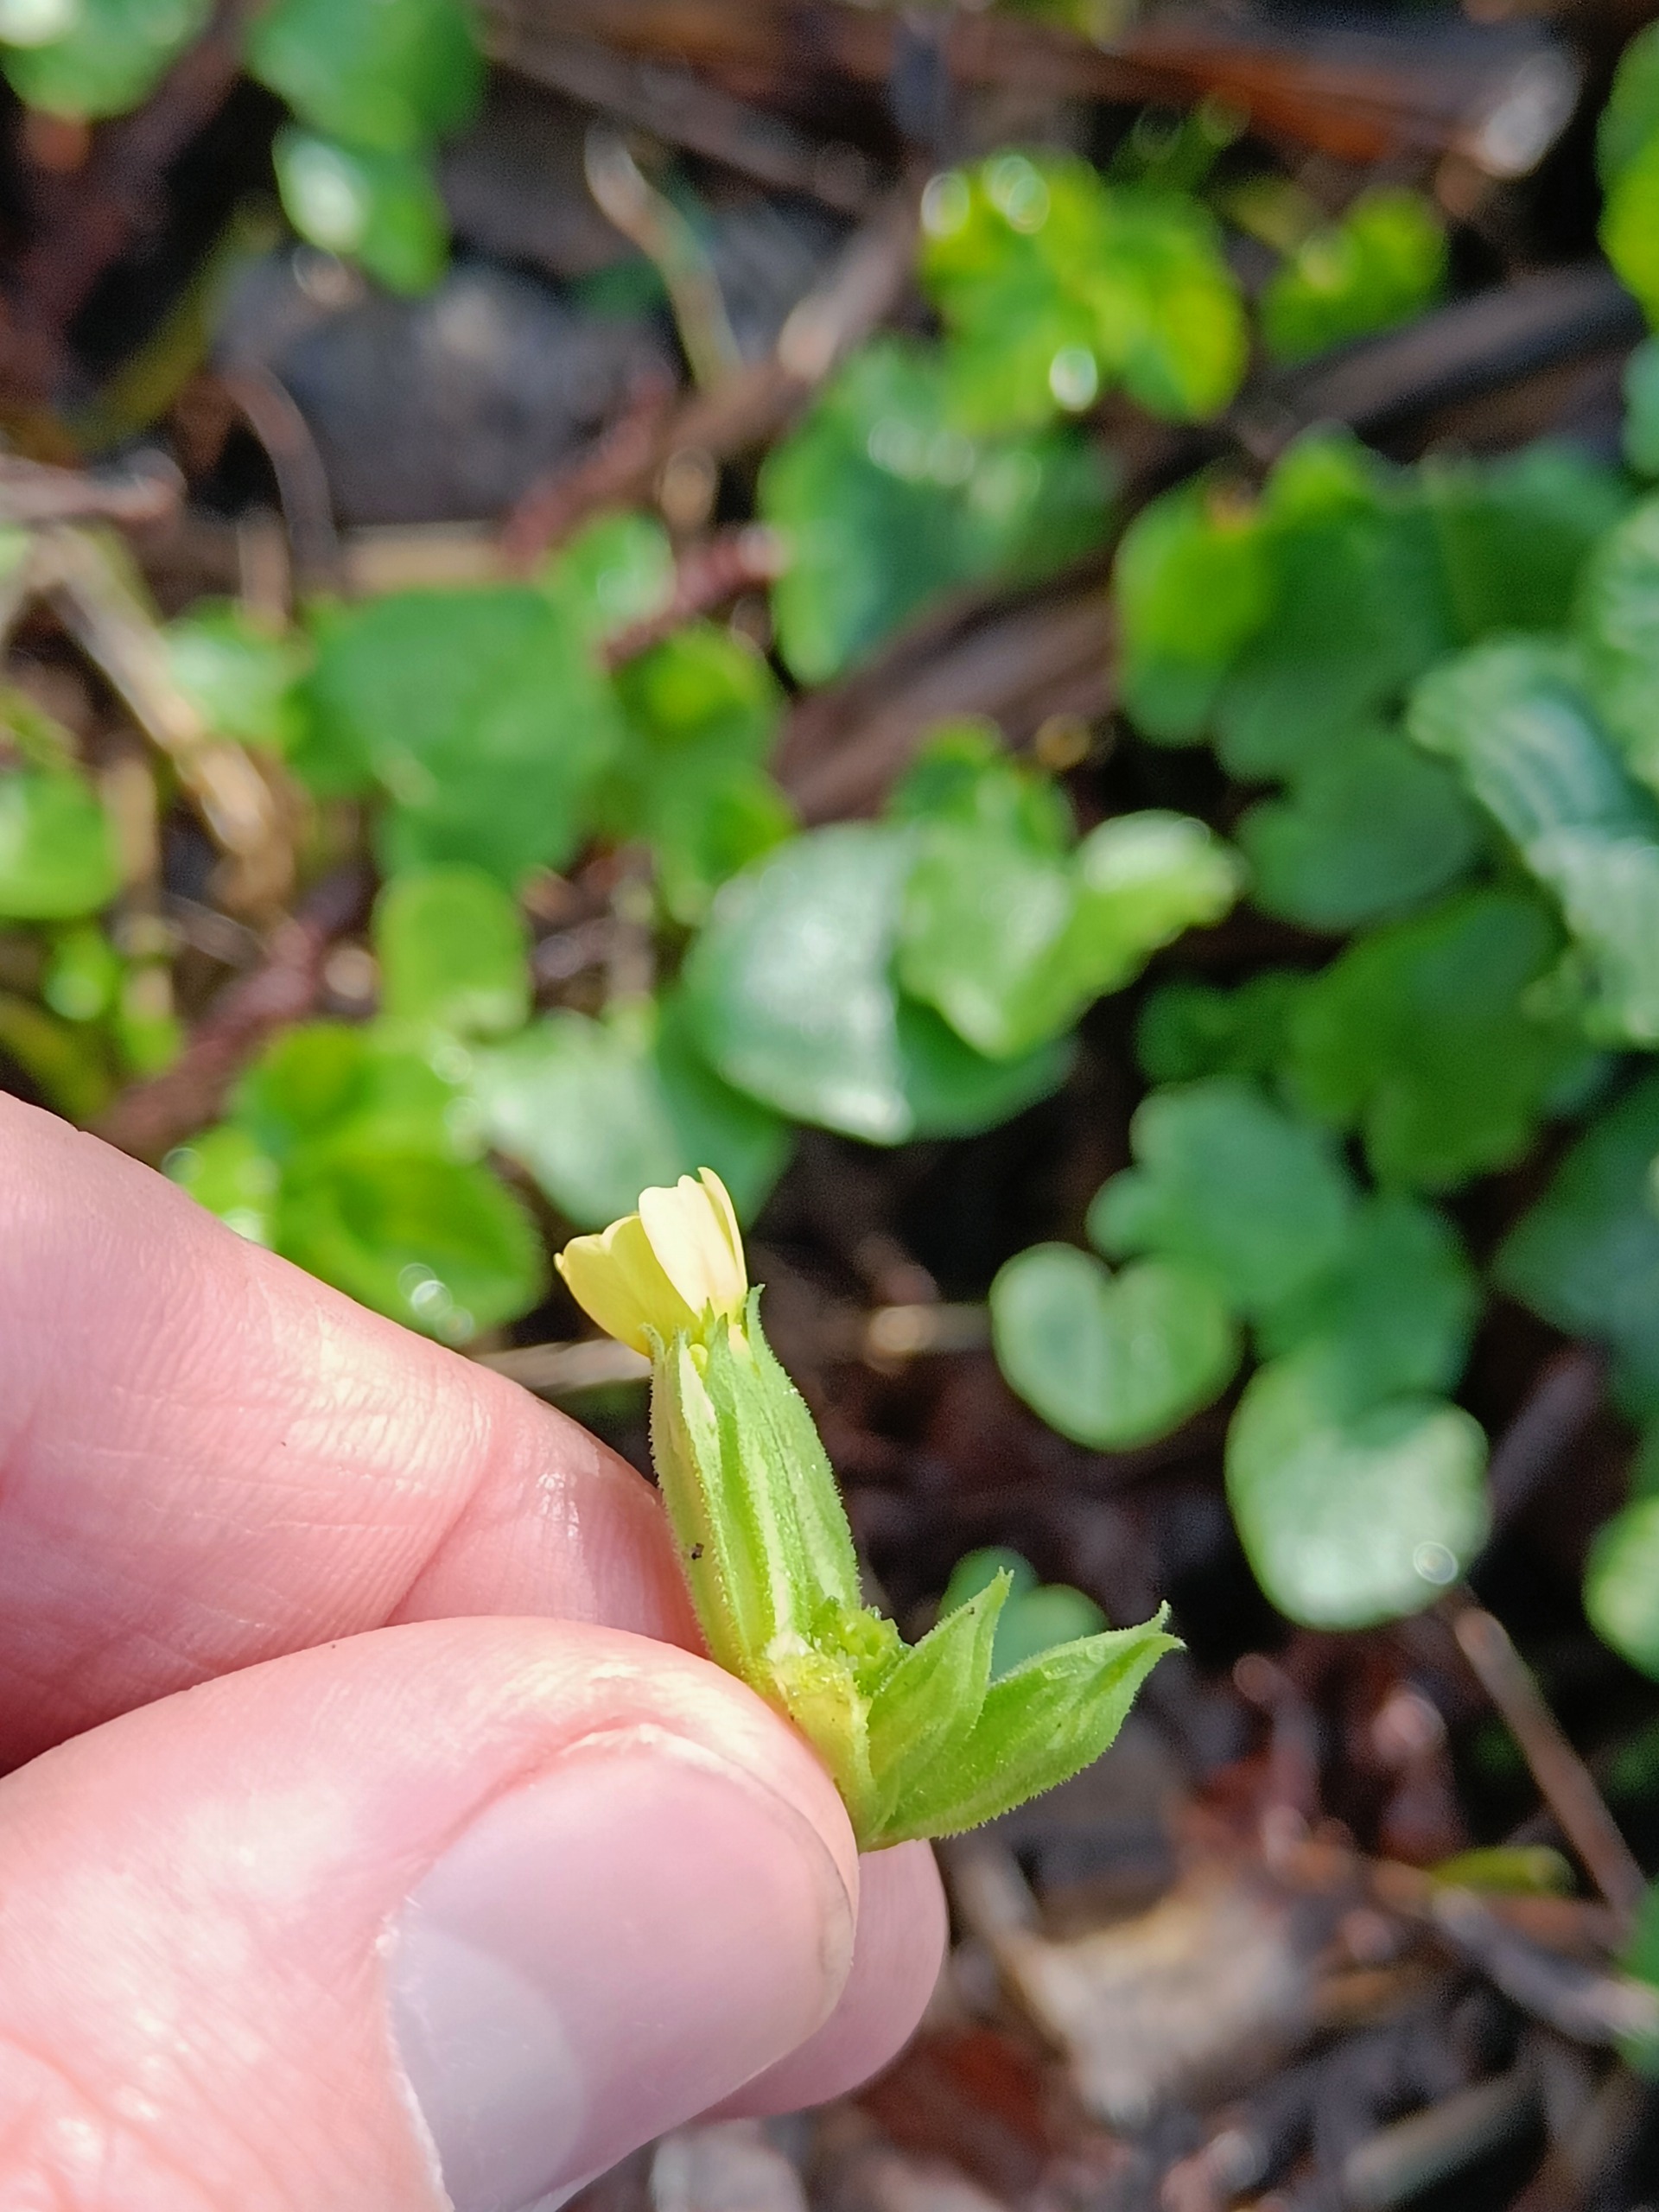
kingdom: Plantae
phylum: Tracheophyta
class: Magnoliopsida
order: Ericales
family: Primulaceae
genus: Primula
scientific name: Primula elatior
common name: Fladkravet kodriver
